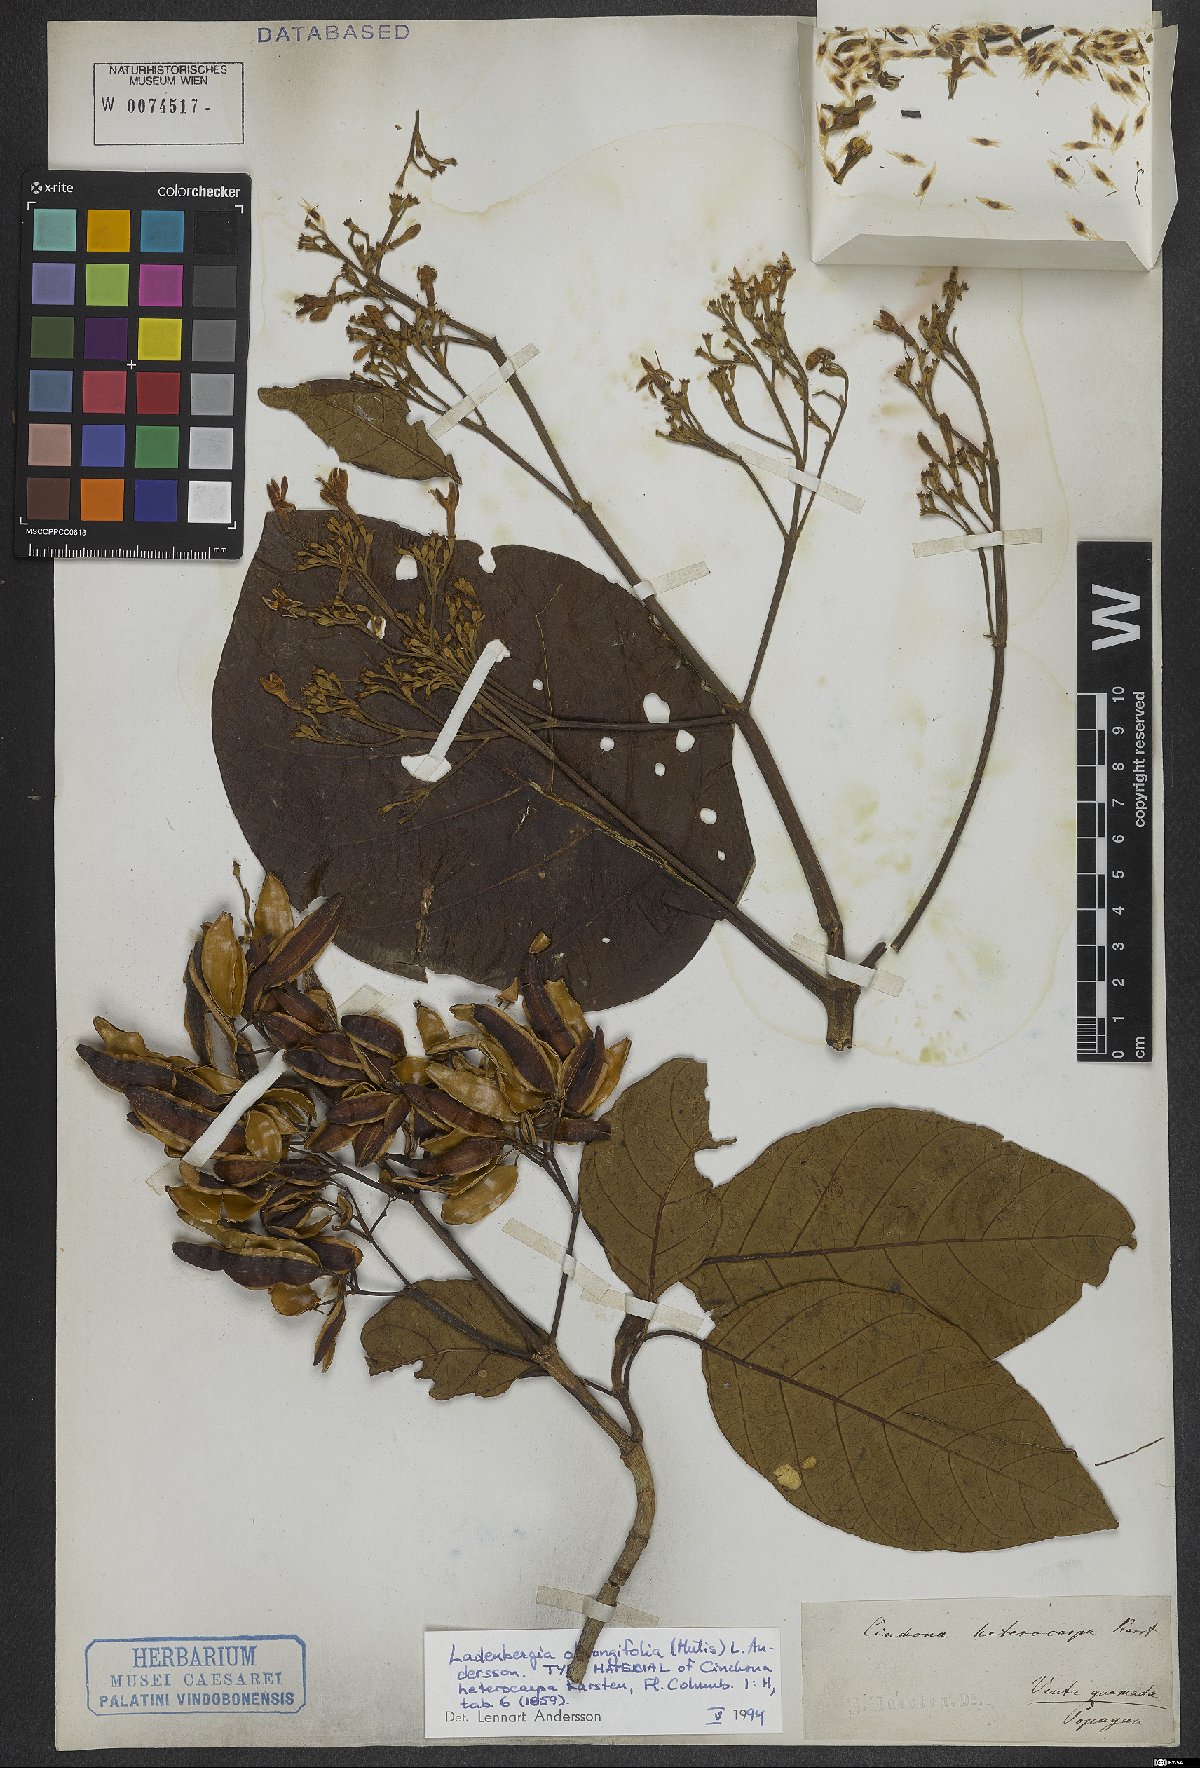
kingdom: Plantae
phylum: Tracheophyta
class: Magnoliopsida
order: Gentianales
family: Rubiaceae
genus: Ladenbergia
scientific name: Ladenbergia oblongifolia
